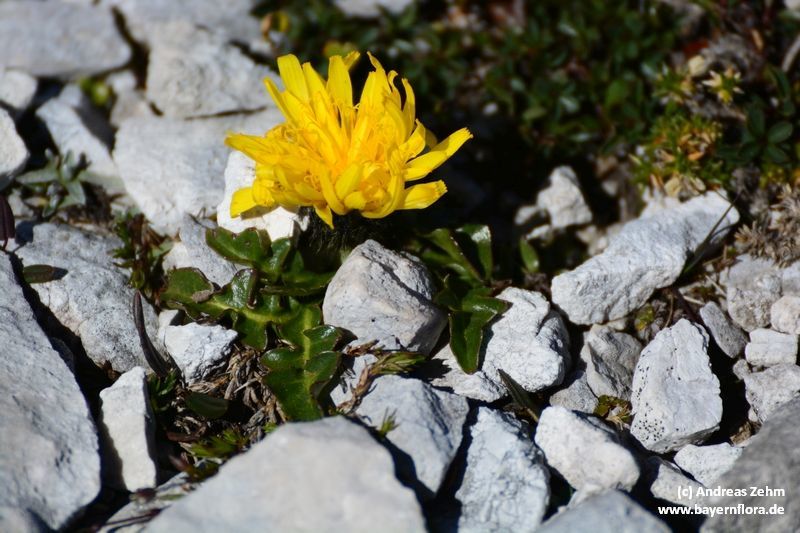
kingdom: Plantae
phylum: Tracheophyta
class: Magnoliopsida
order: Asterales
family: Asteraceae
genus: Crepis
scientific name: Crepis terglouensis
